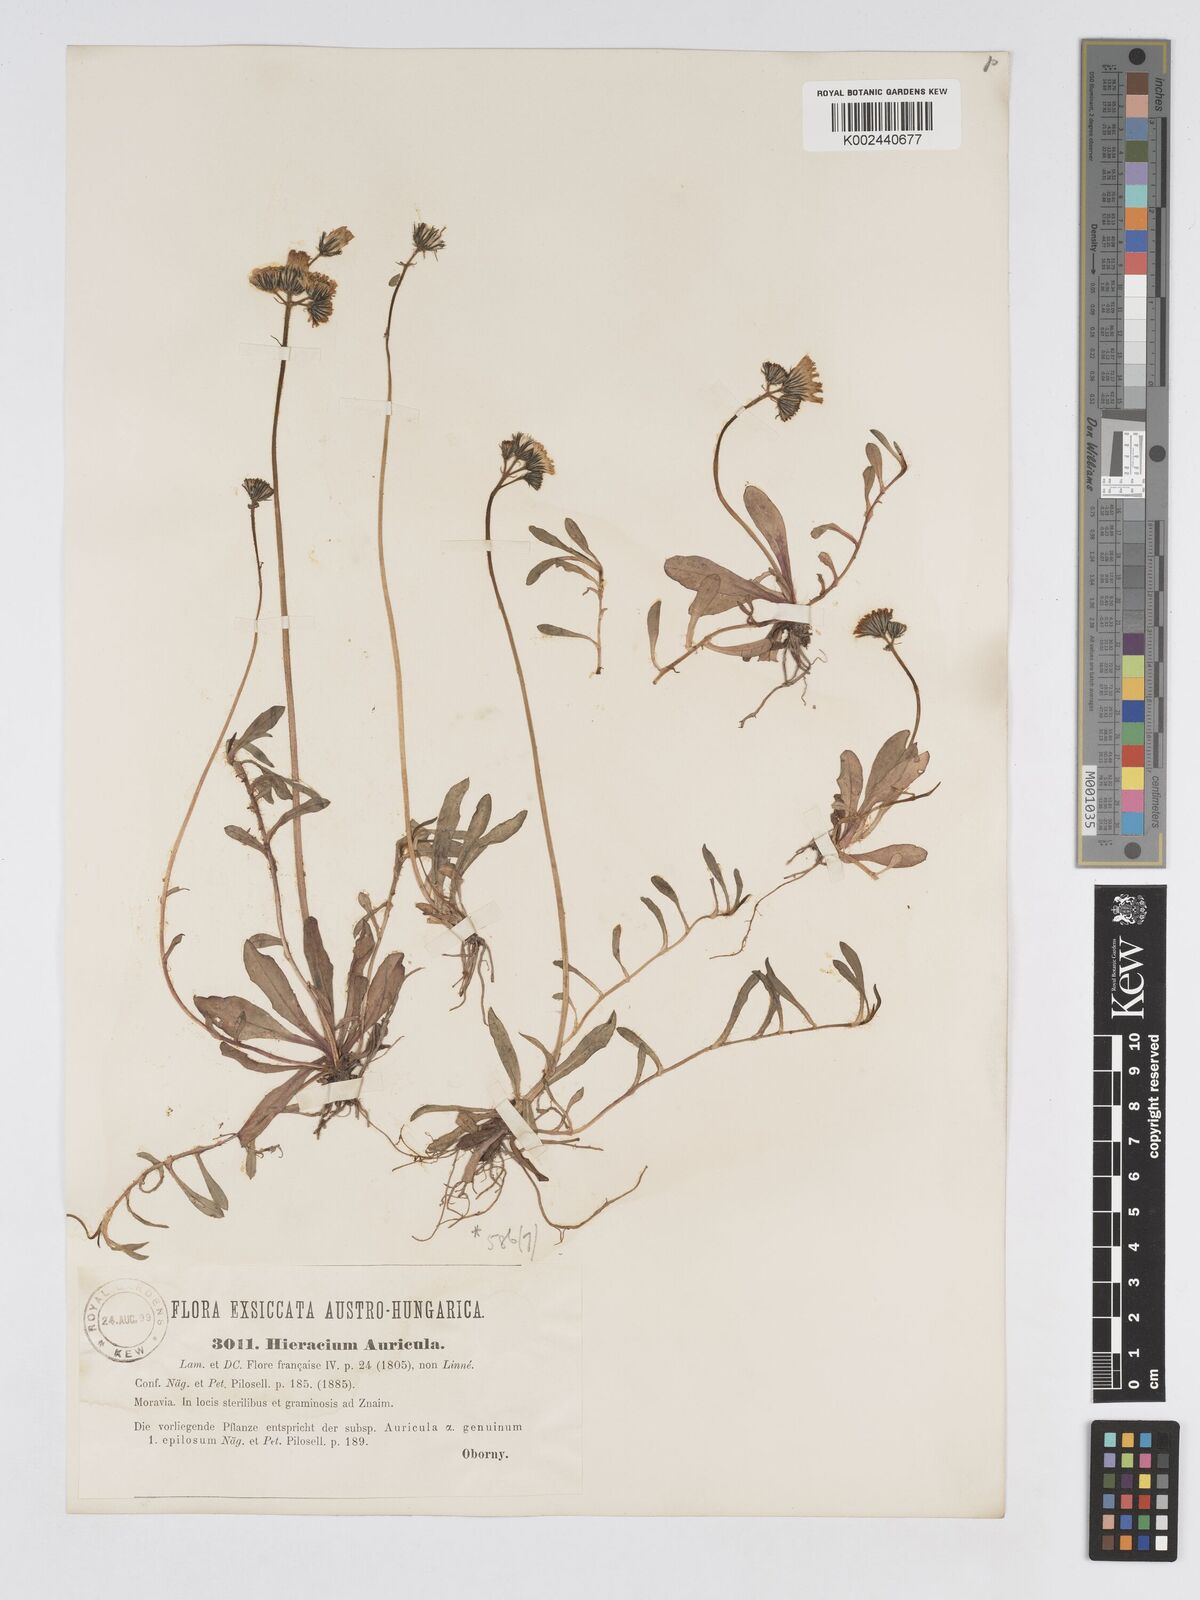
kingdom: Plantae
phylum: Tracheophyta
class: Magnoliopsida
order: Asterales
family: Asteraceae
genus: Pilosella
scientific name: Pilosella floribunda
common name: Glaucous hawkweed
